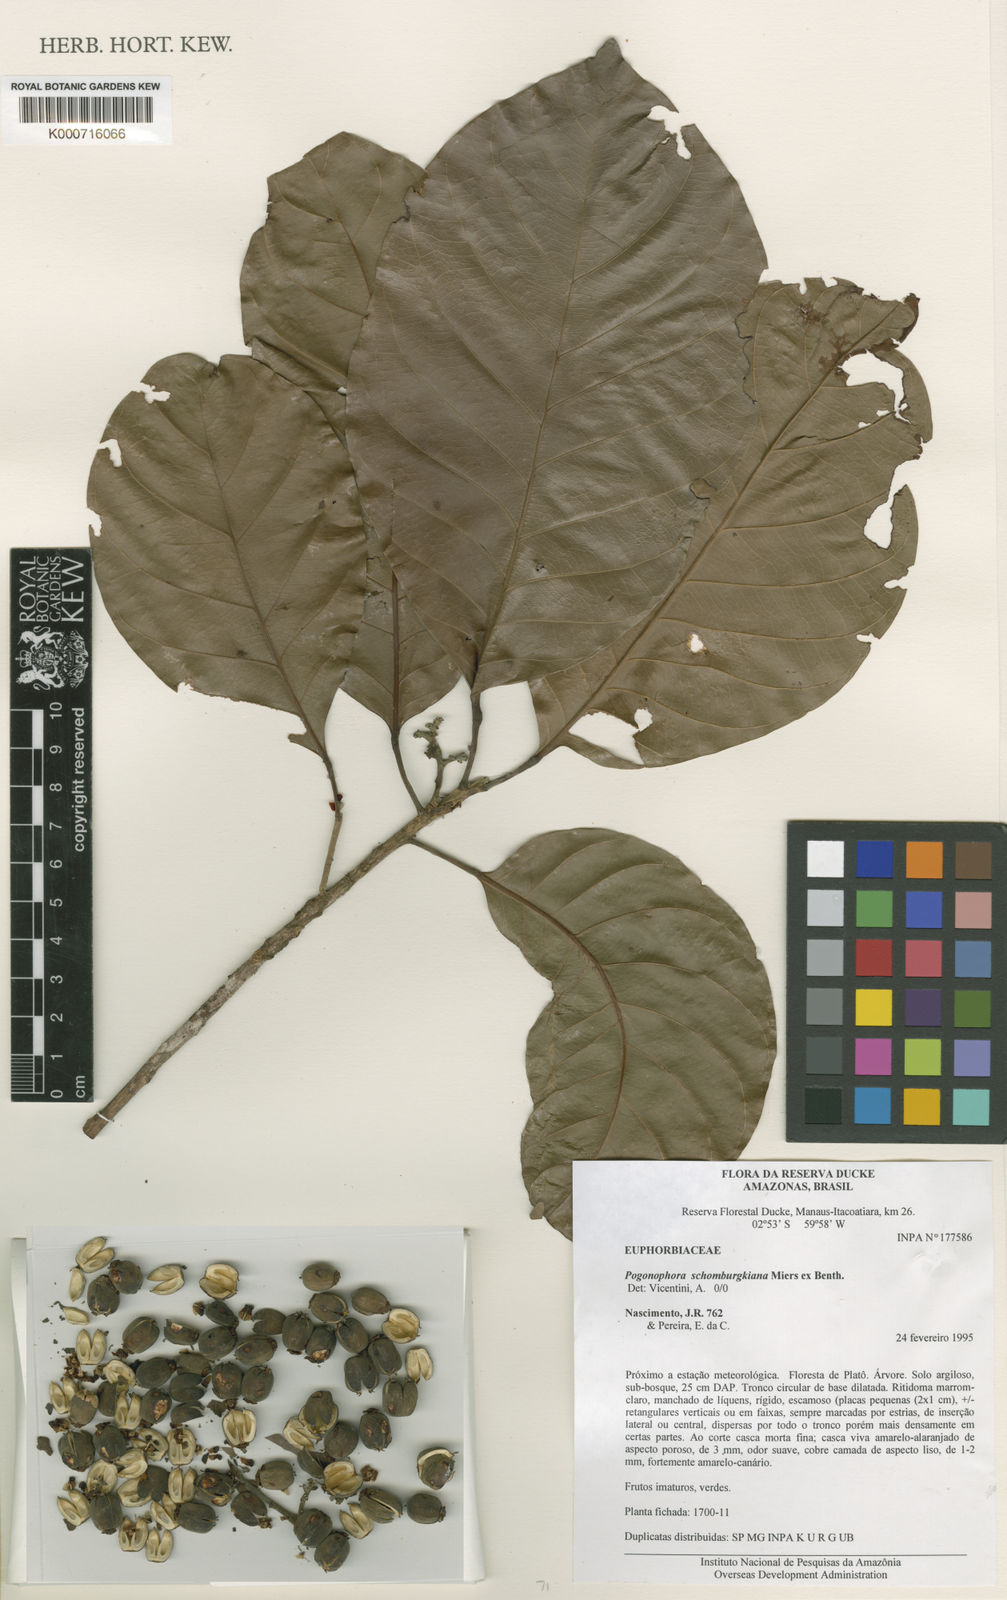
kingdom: Plantae
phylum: Tracheophyta
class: Magnoliopsida
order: Malpighiales
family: Peraceae
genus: Pogonophora
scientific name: Pogonophora schomburgkiana
